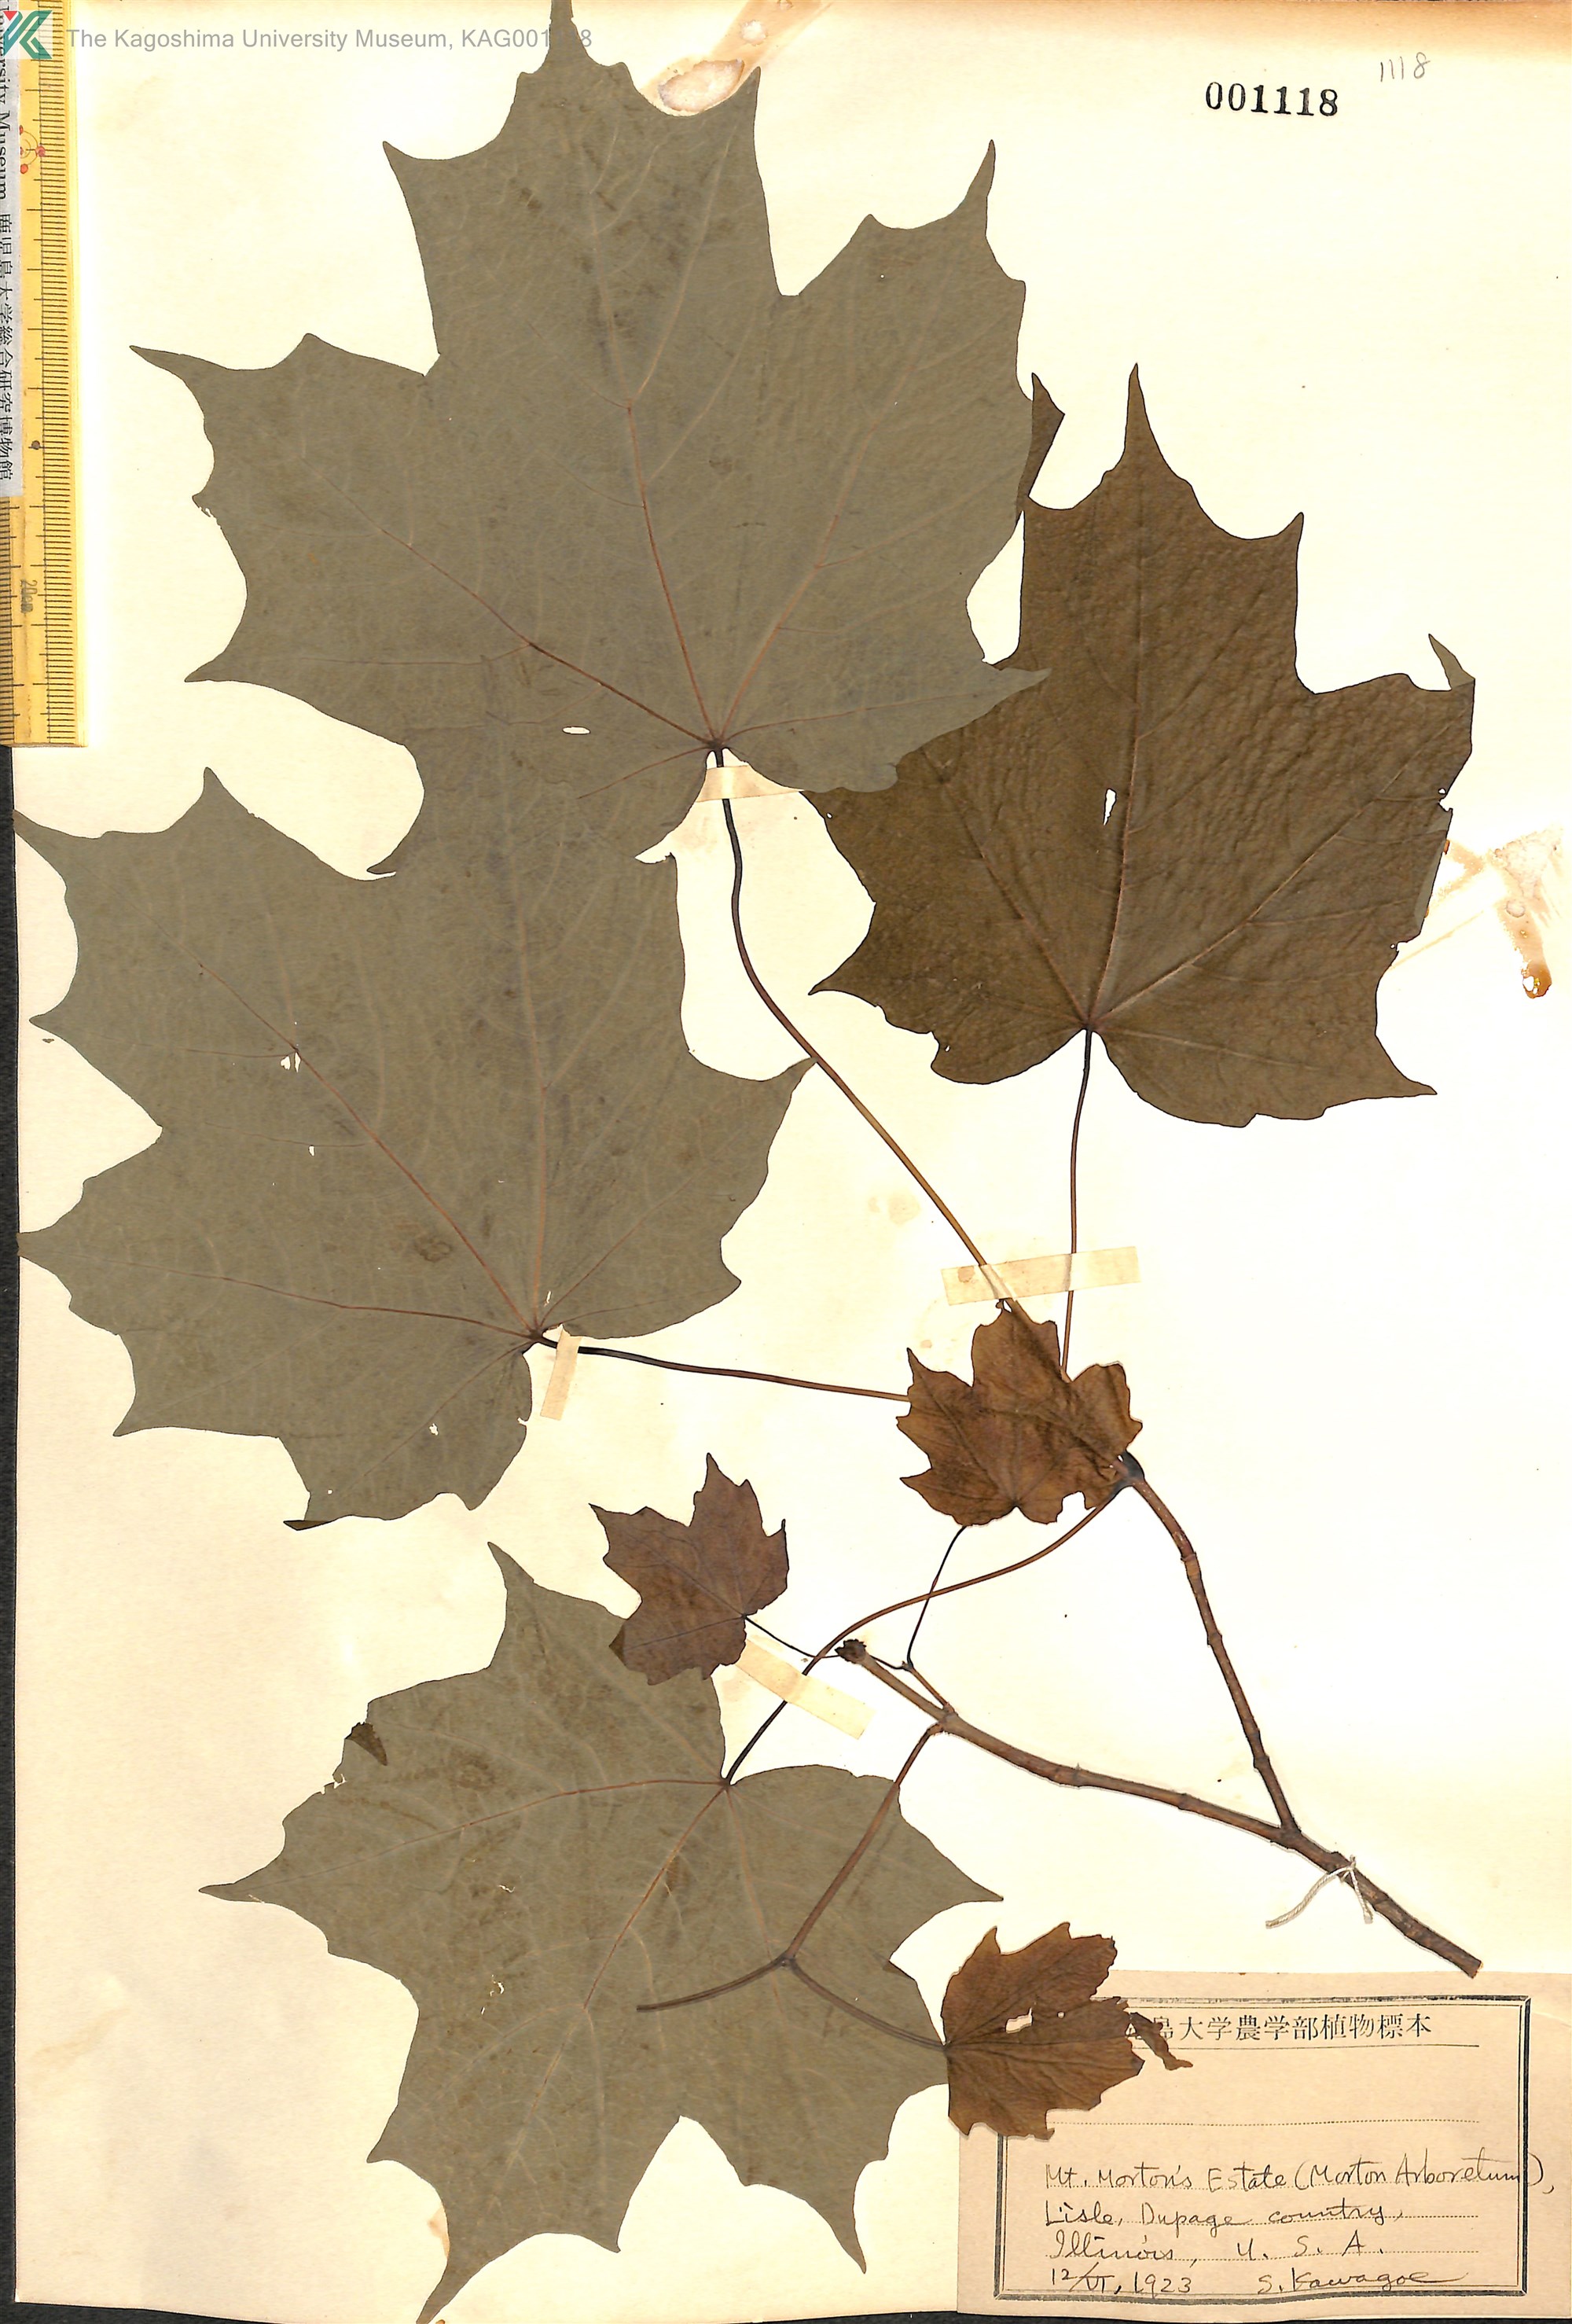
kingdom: Plantae
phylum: Tracheophyta
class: Magnoliopsida
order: Sapindales
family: Sapindaceae
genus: Acer
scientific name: Acer
